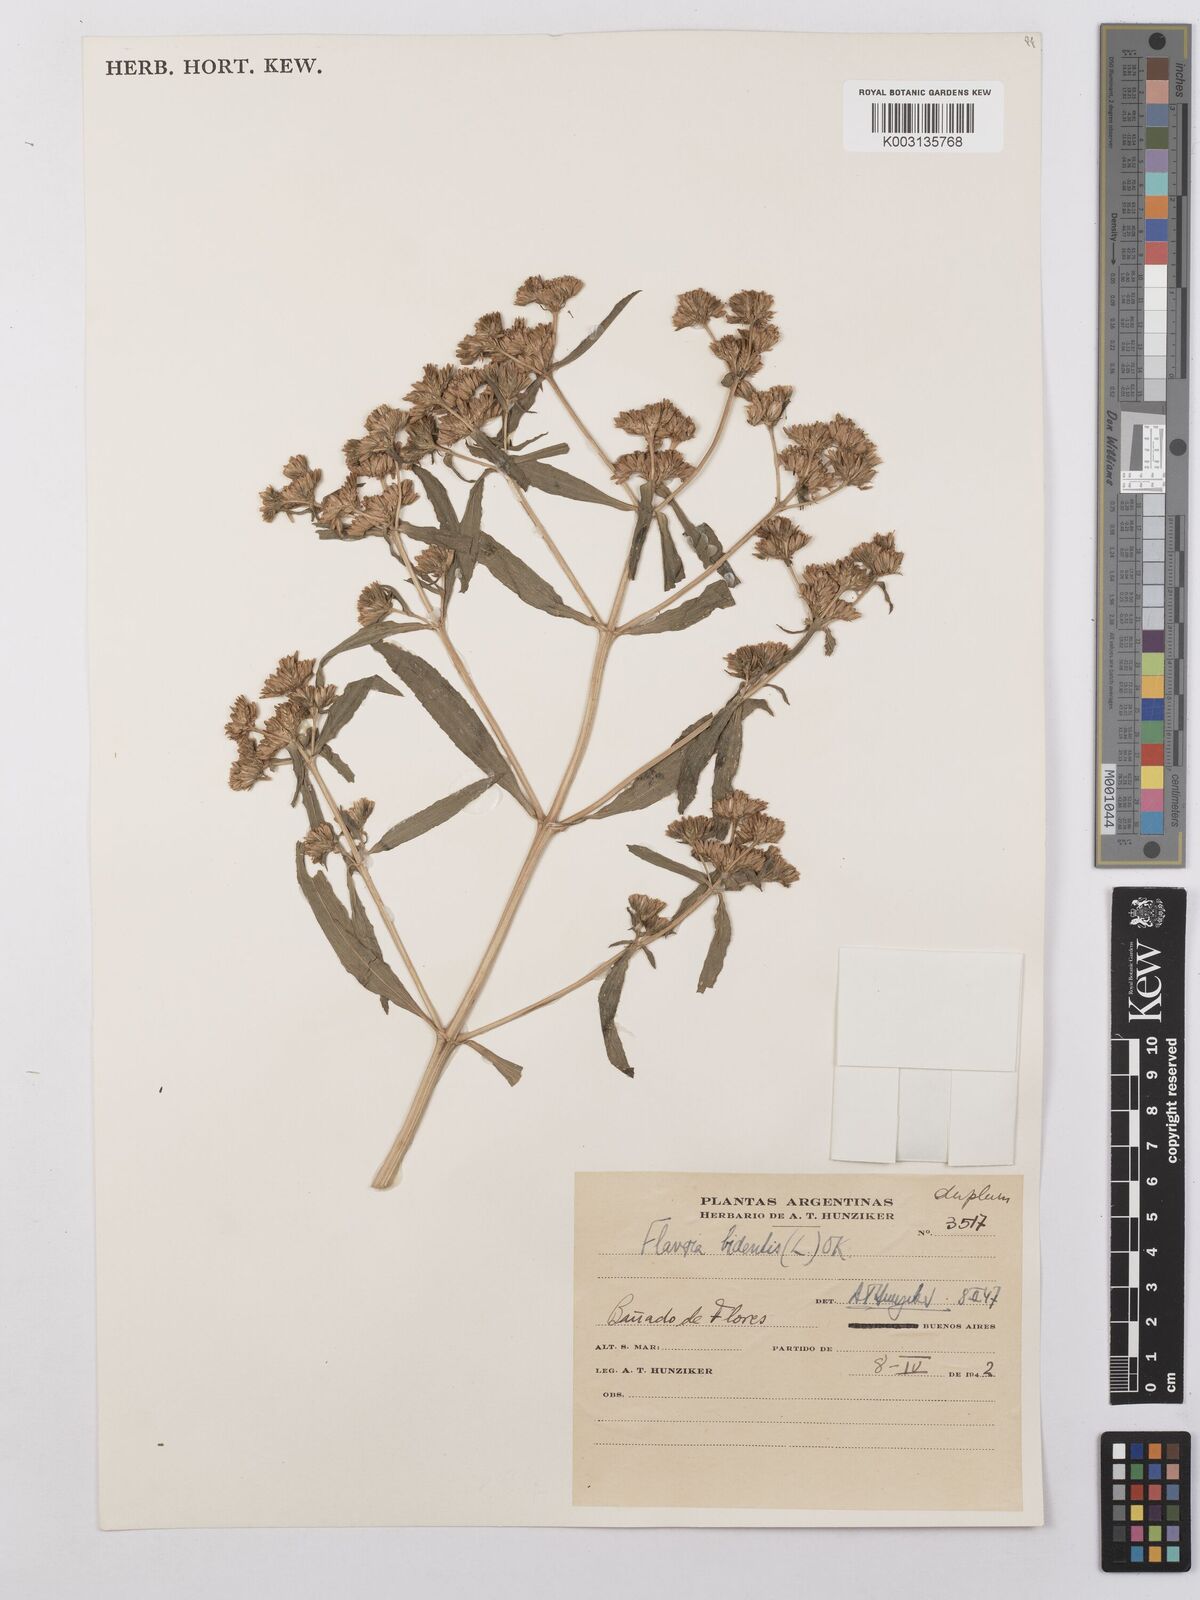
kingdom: Plantae
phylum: Tracheophyta
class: Magnoliopsida
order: Asterales
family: Asteraceae
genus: Flaveria
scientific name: Flaveria bidentis
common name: Coastal plain yellowtops
